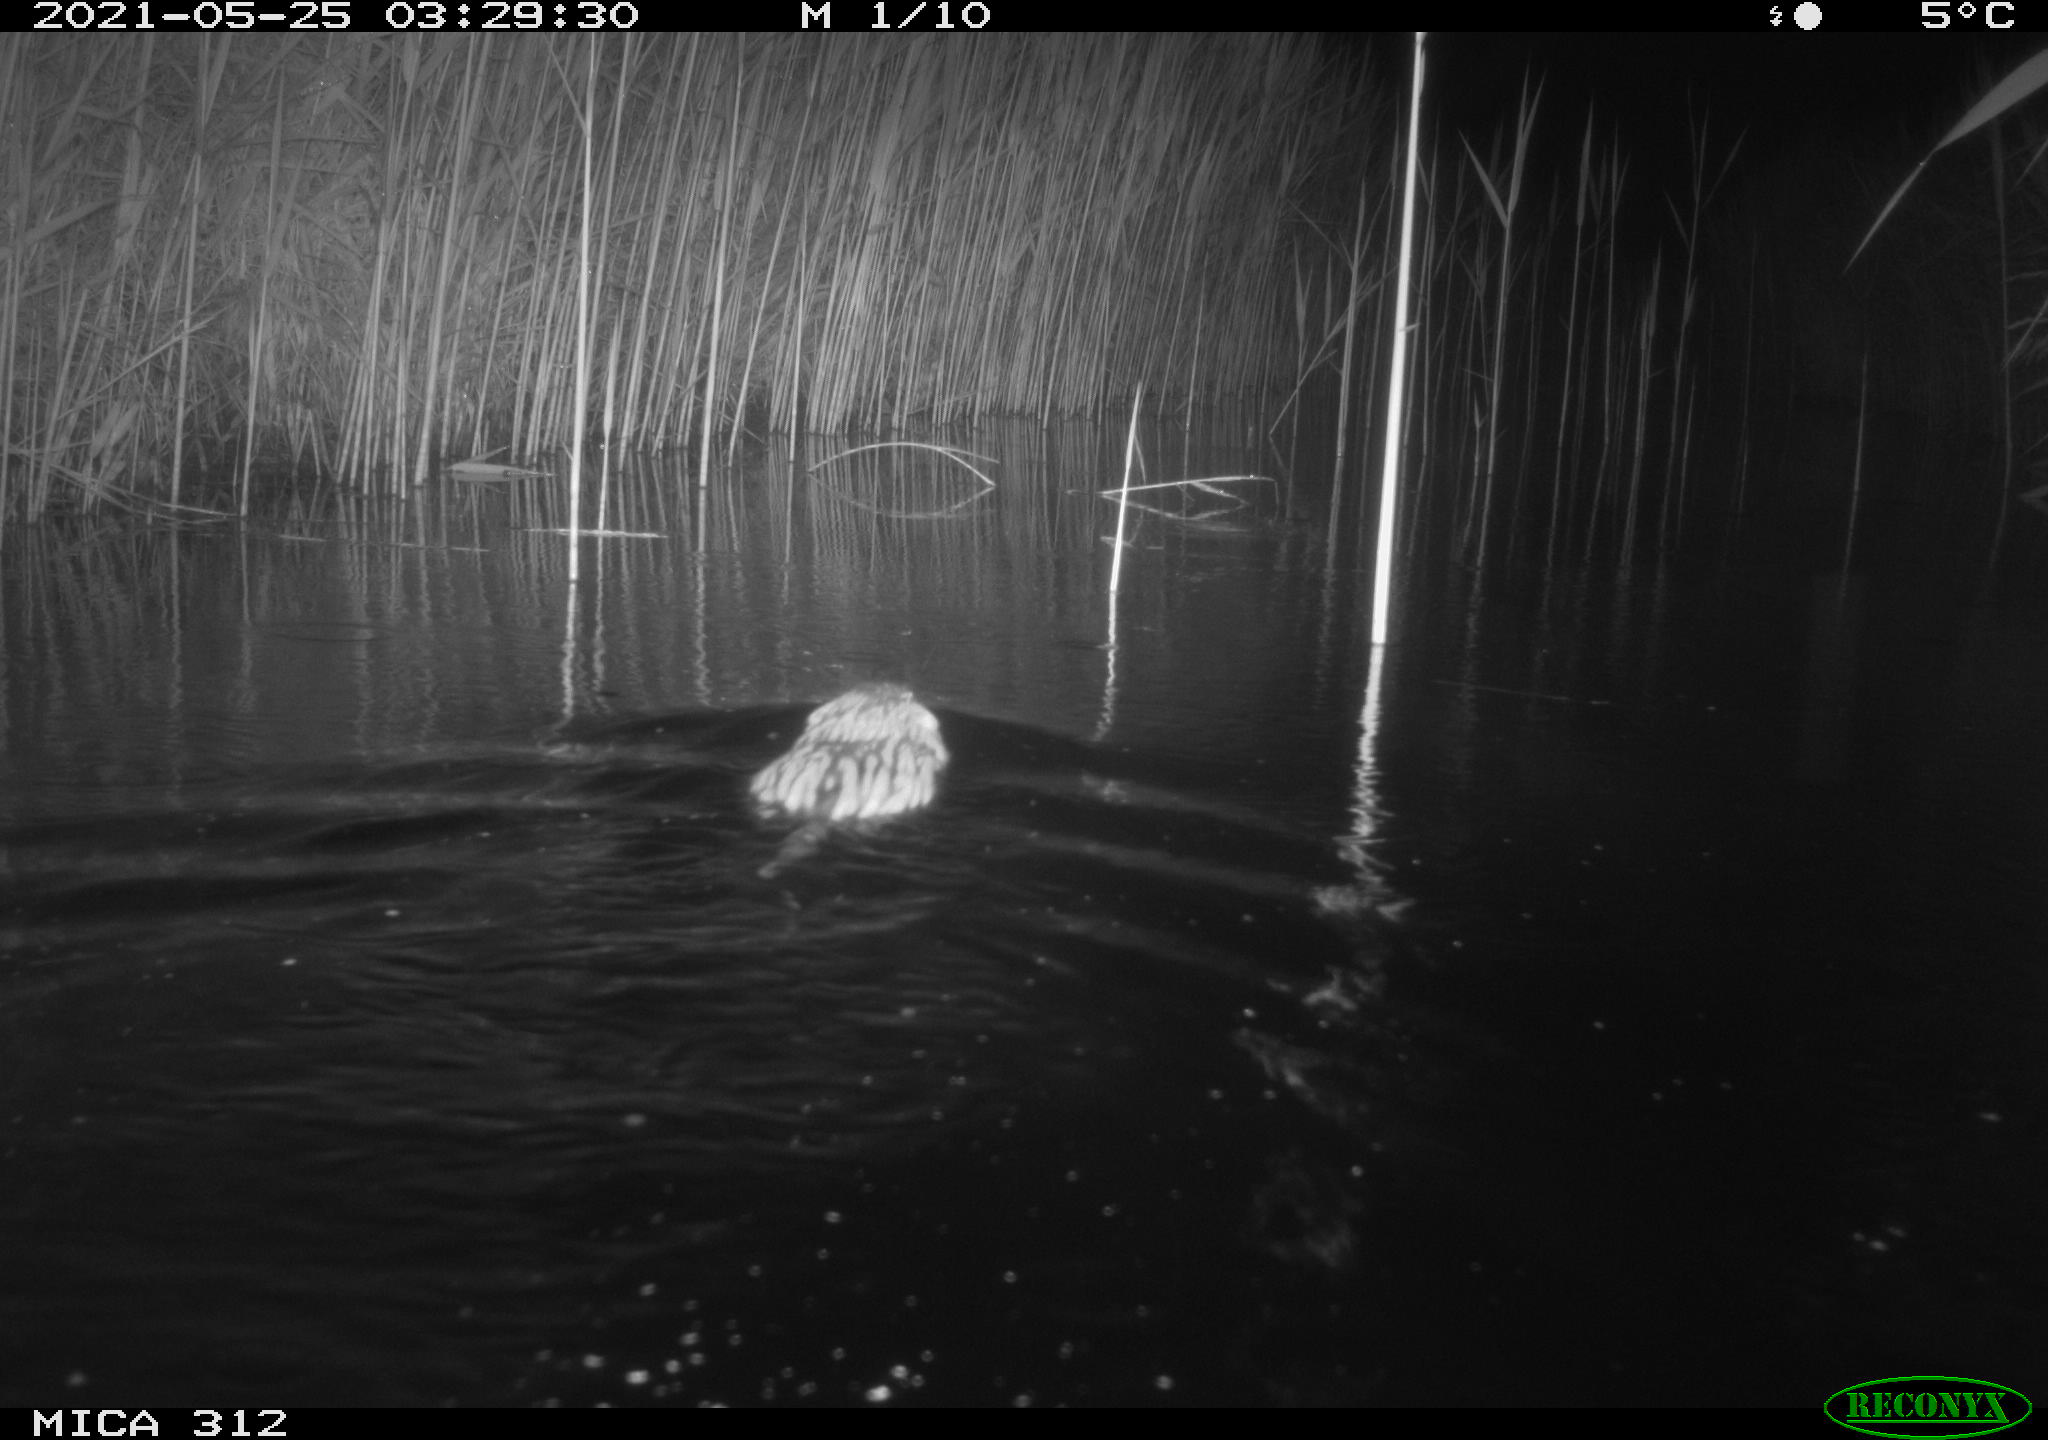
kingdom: Animalia
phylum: Chordata
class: Mammalia
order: Rodentia
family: Cricetidae
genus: Ondatra
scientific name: Ondatra zibethicus
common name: Muskrat
